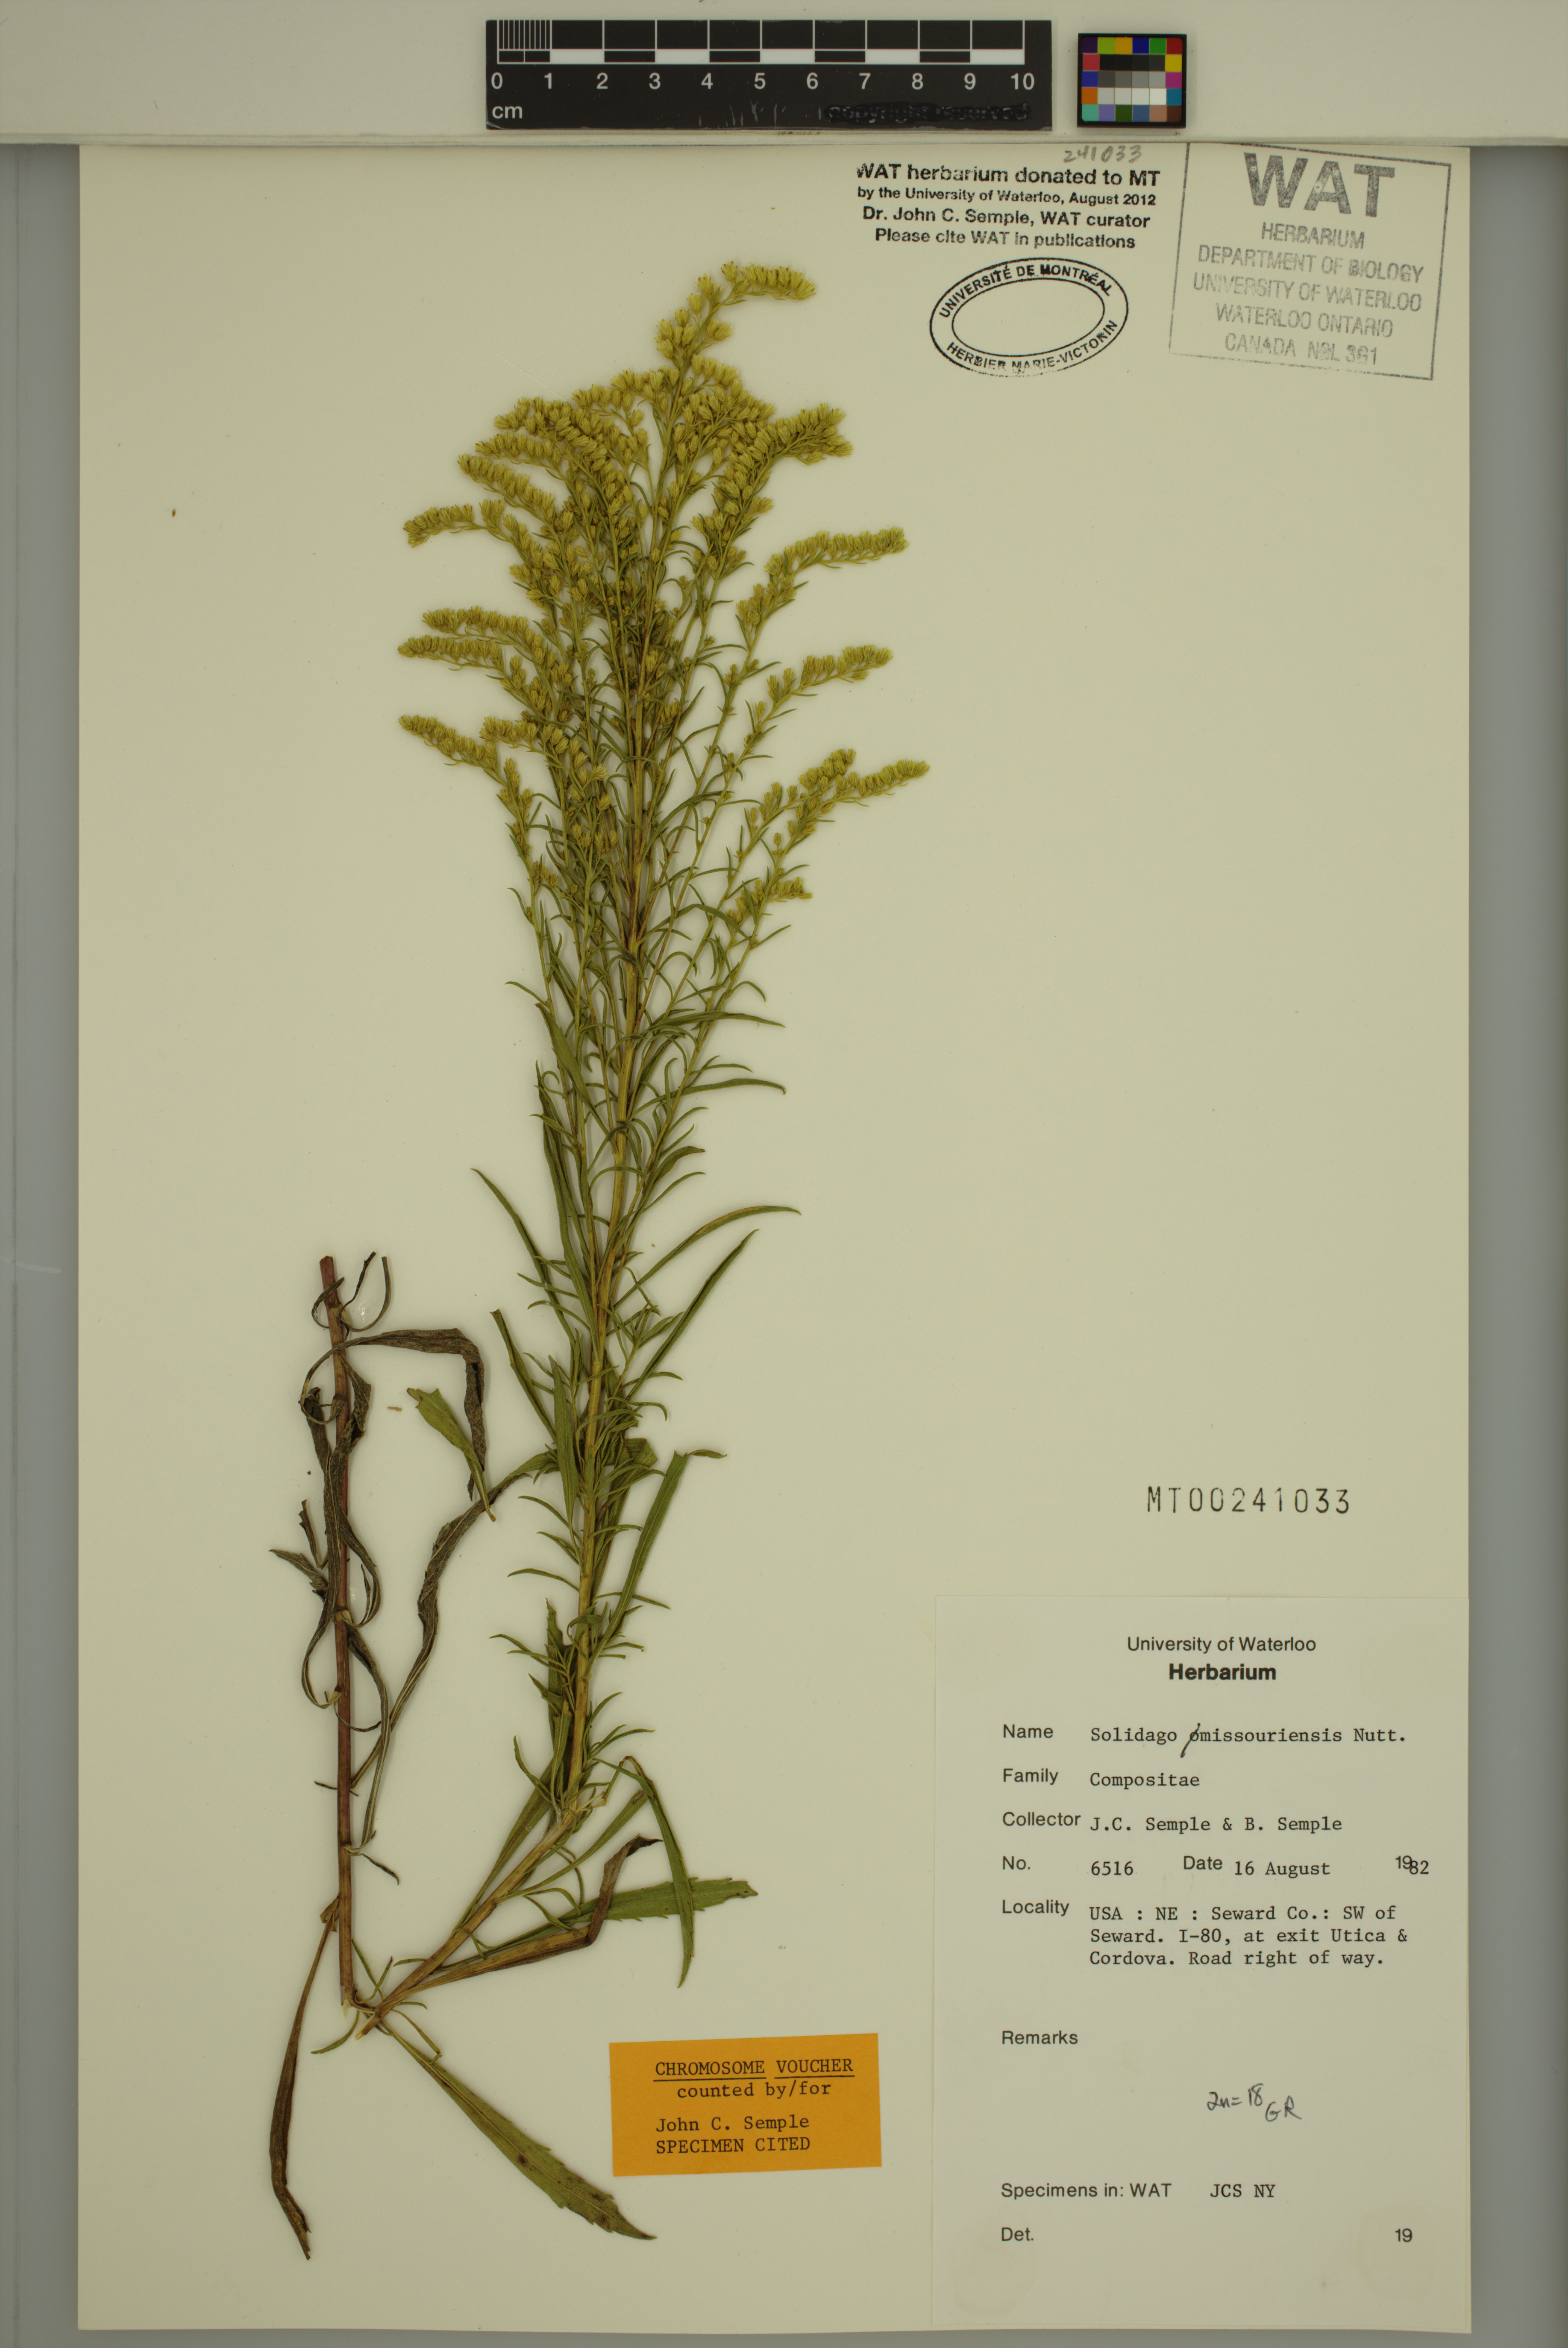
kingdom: Plantae
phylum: Tracheophyta
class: Magnoliopsida
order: Asterales
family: Asteraceae
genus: Solidago
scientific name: Solidago missouriensis
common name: Prairie goldenrod
